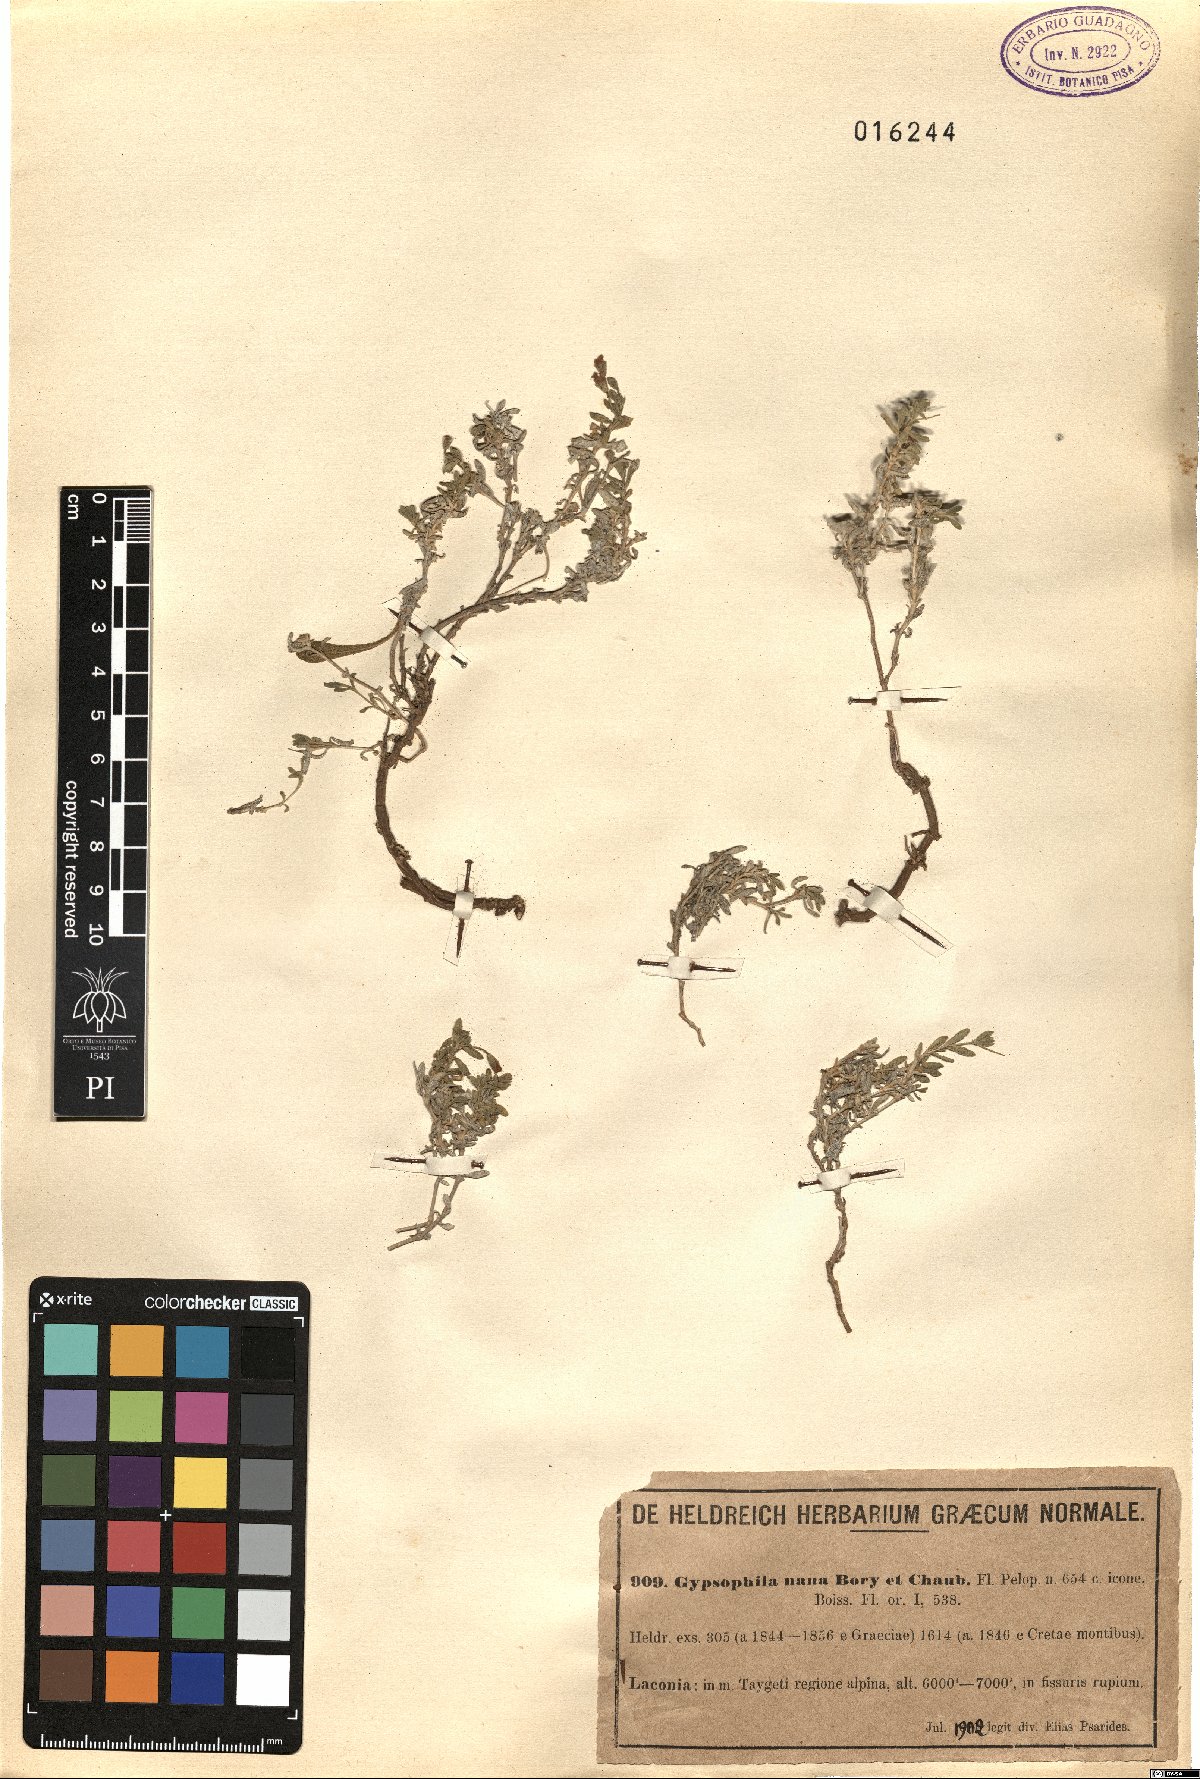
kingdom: Plantae
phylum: Tracheophyta
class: Magnoliopsida
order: Caryophyllales
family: Caryophyllaceae
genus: Gypsophila
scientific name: Gypsophila nana
